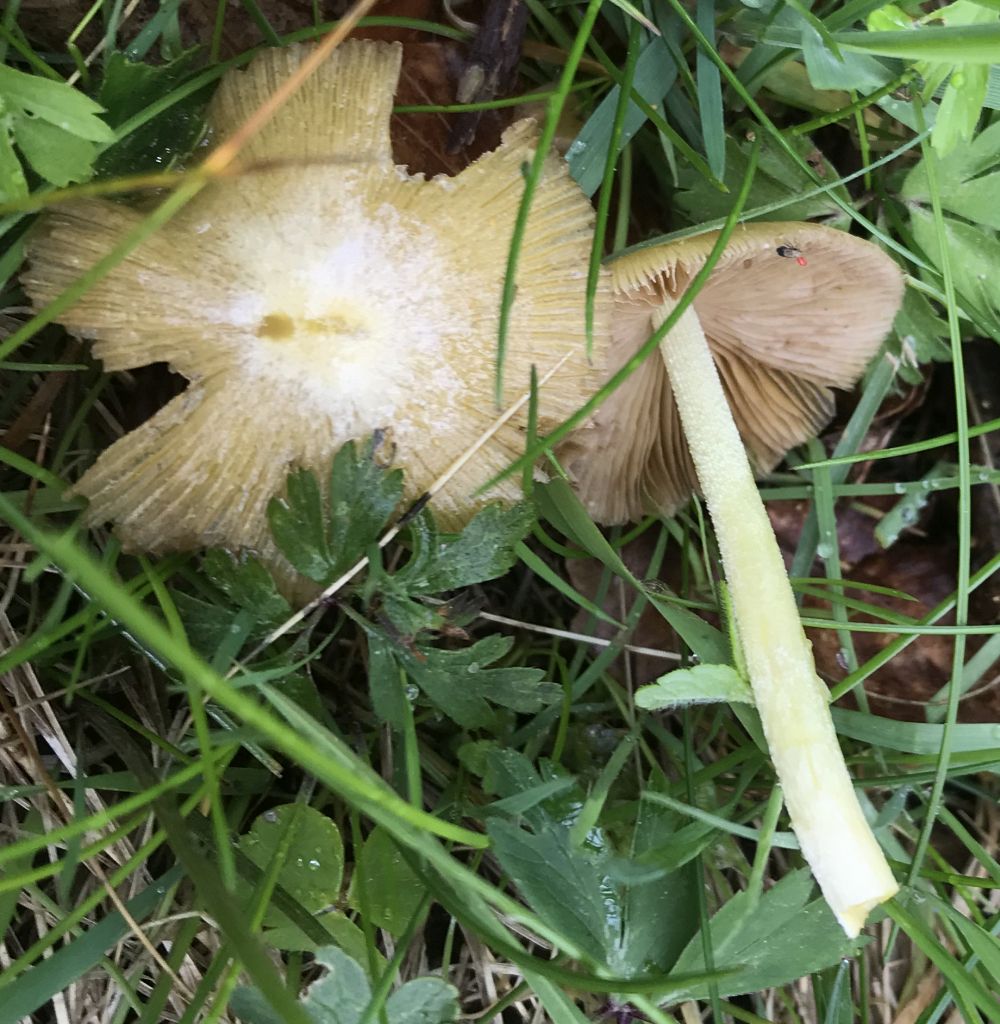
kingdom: Fungi
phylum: Basidiomycota
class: Agaricomycetes
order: Agaricales
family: Bolbitiaceae
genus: Bolbitius
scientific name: Bolbitius titubans
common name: almindelig gulhat
